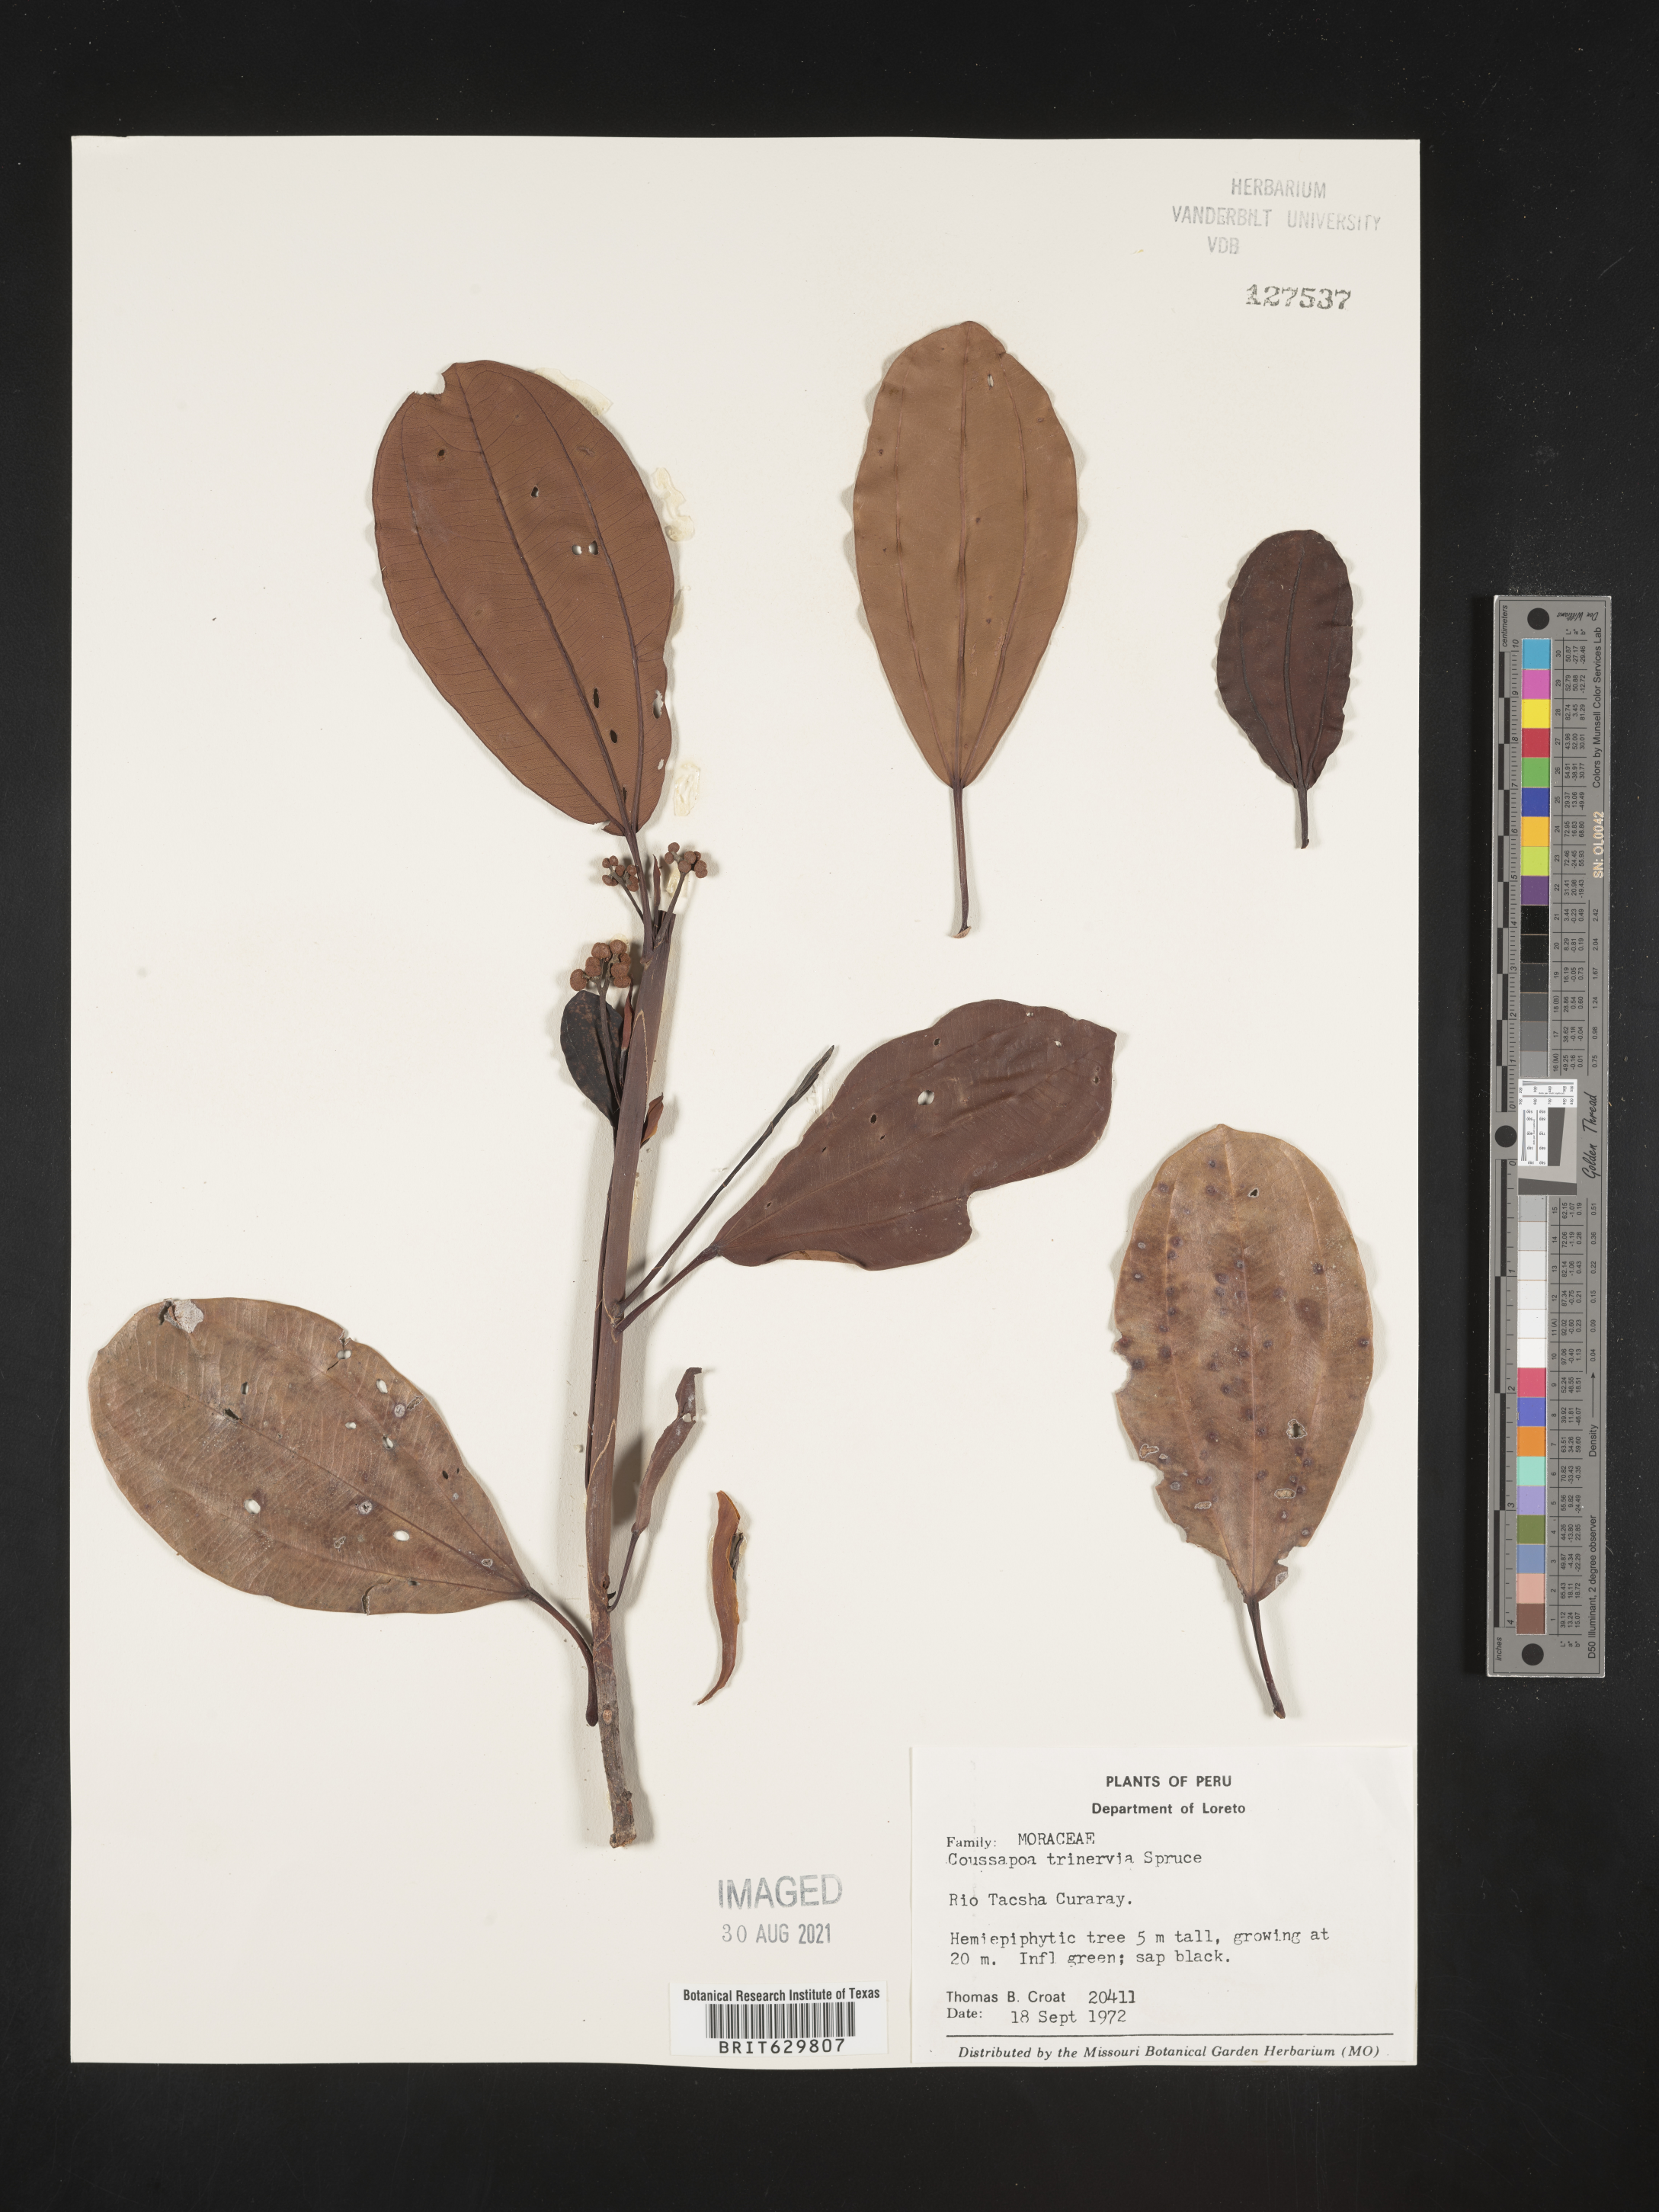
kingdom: Plantae
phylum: Tracheophyta
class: Magnoliopsida
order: Rosales
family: Urticaceae
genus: Coussapoa
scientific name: Coussapoa
